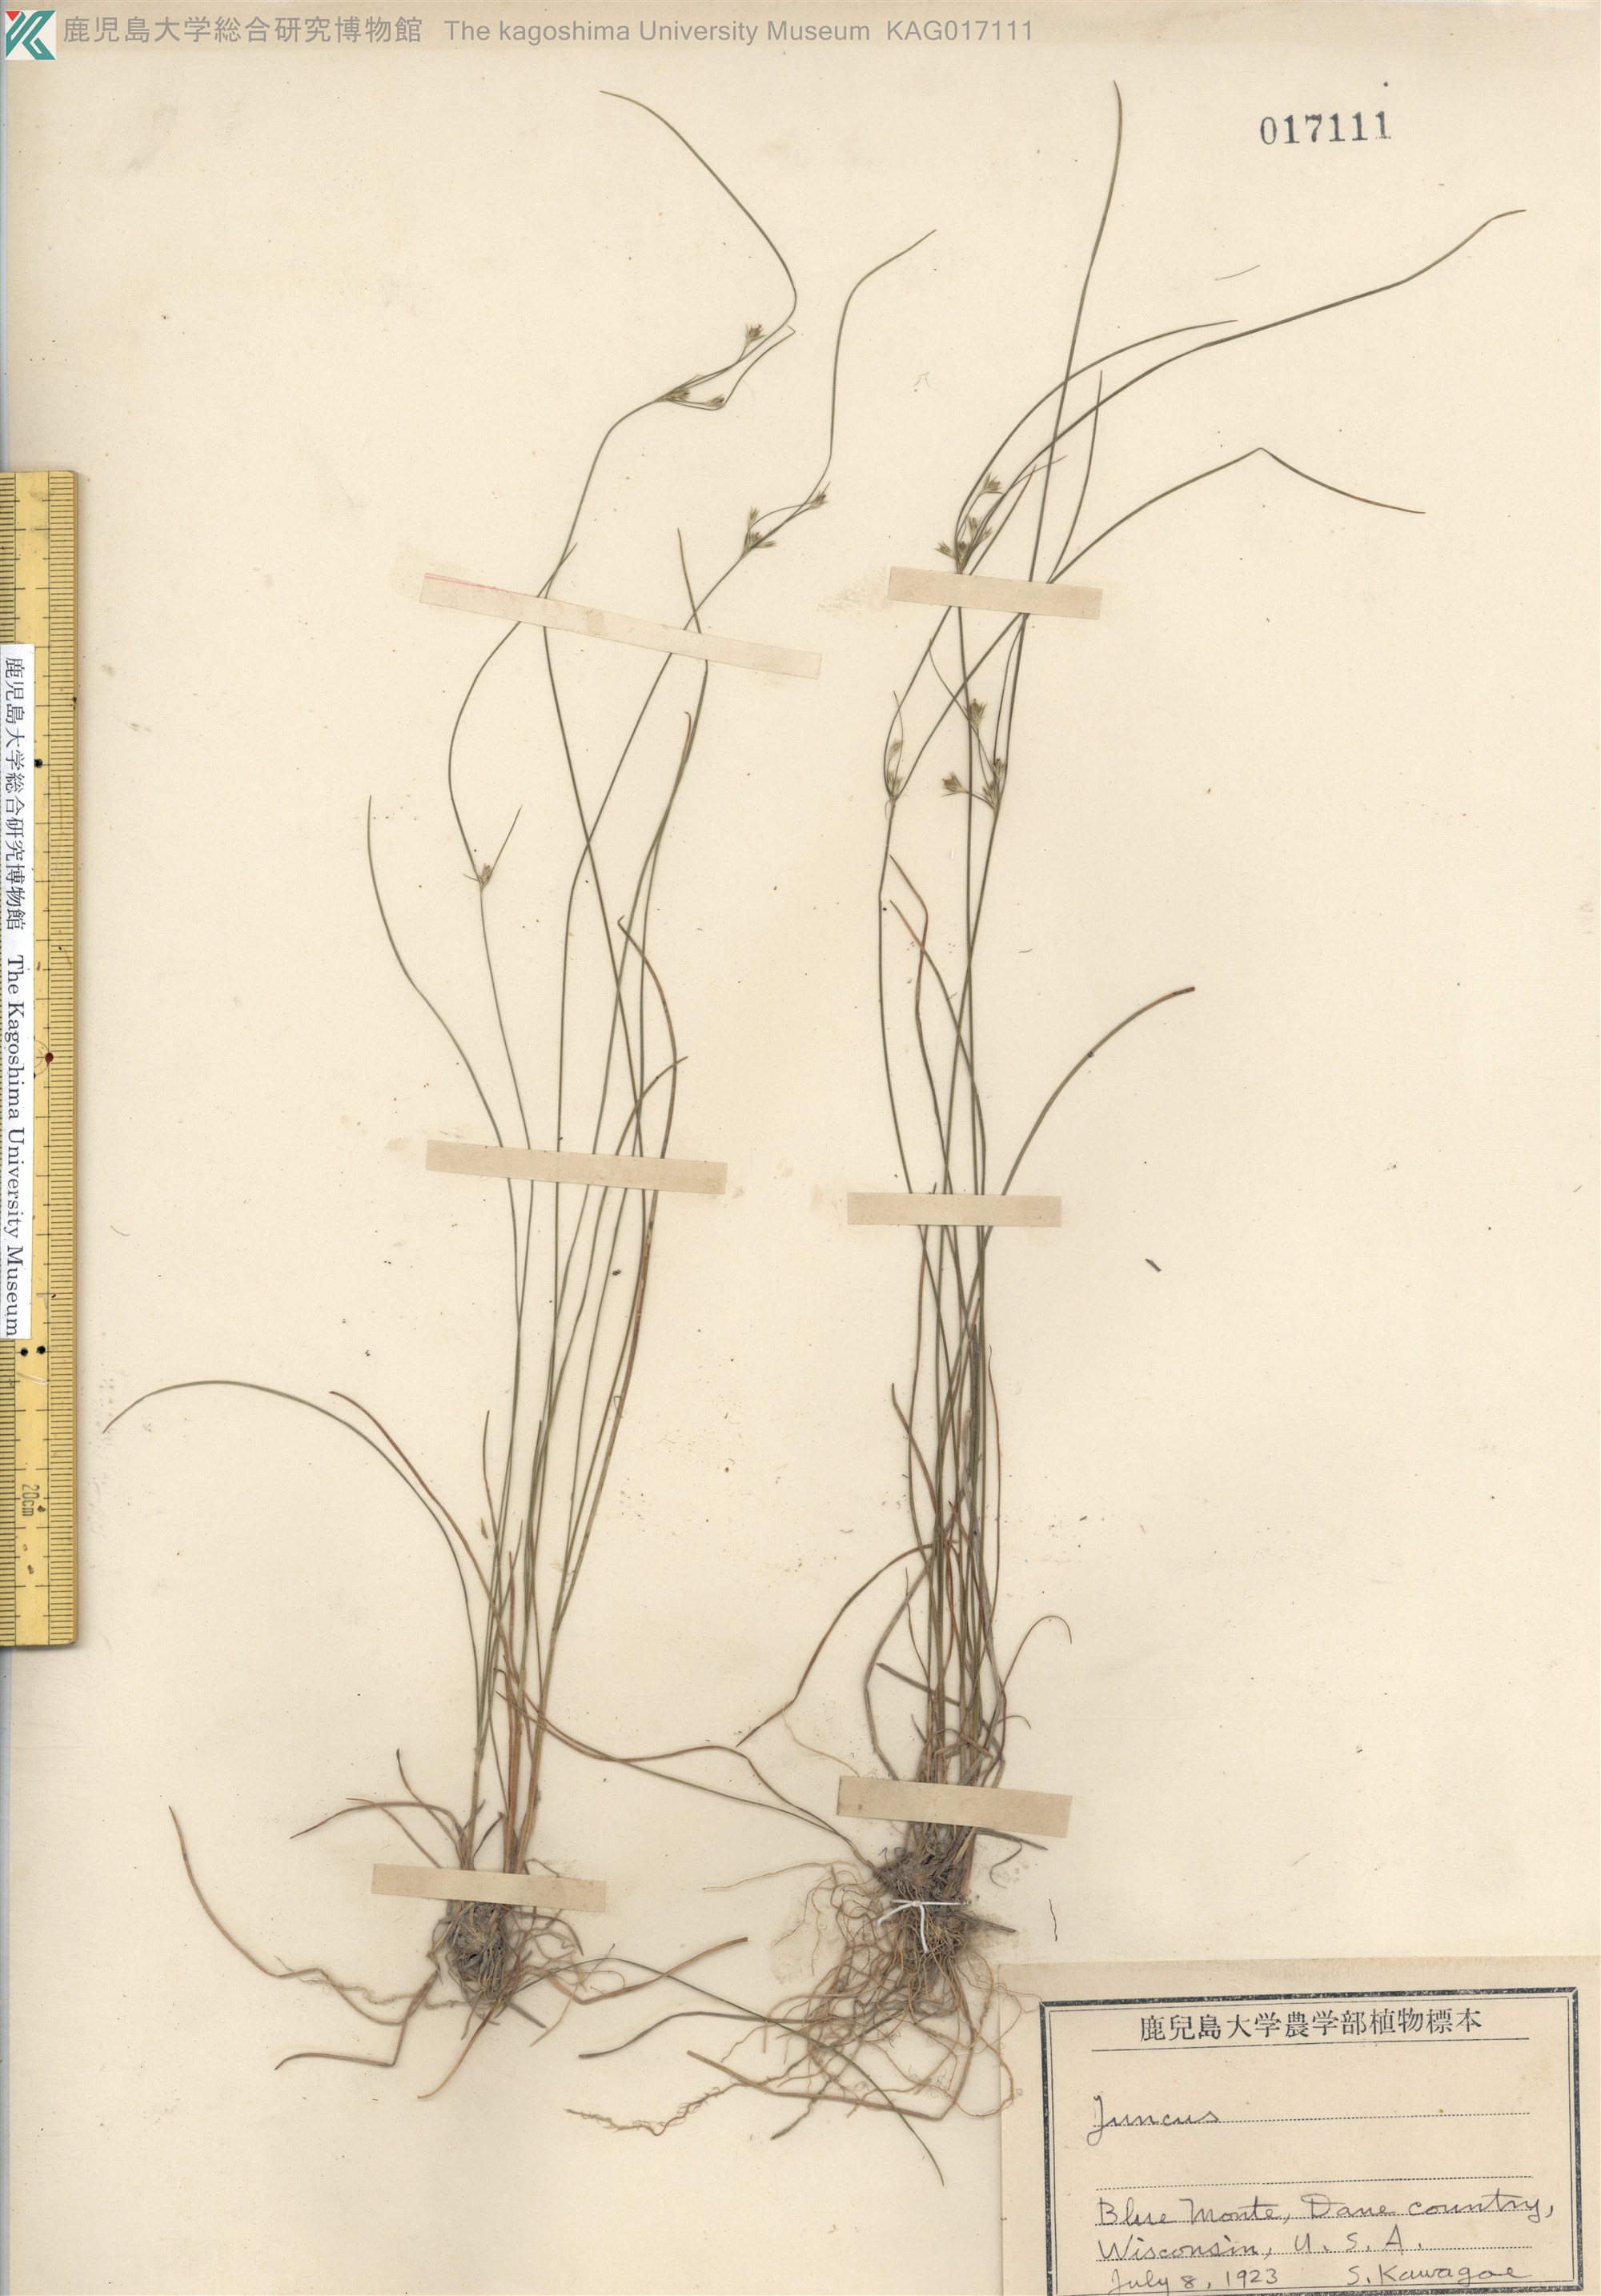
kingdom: Plantae
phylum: Tracheophyta
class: Liliopsida
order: Poales
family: Juncaceae
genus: Juncus
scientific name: Juncus tenuis
